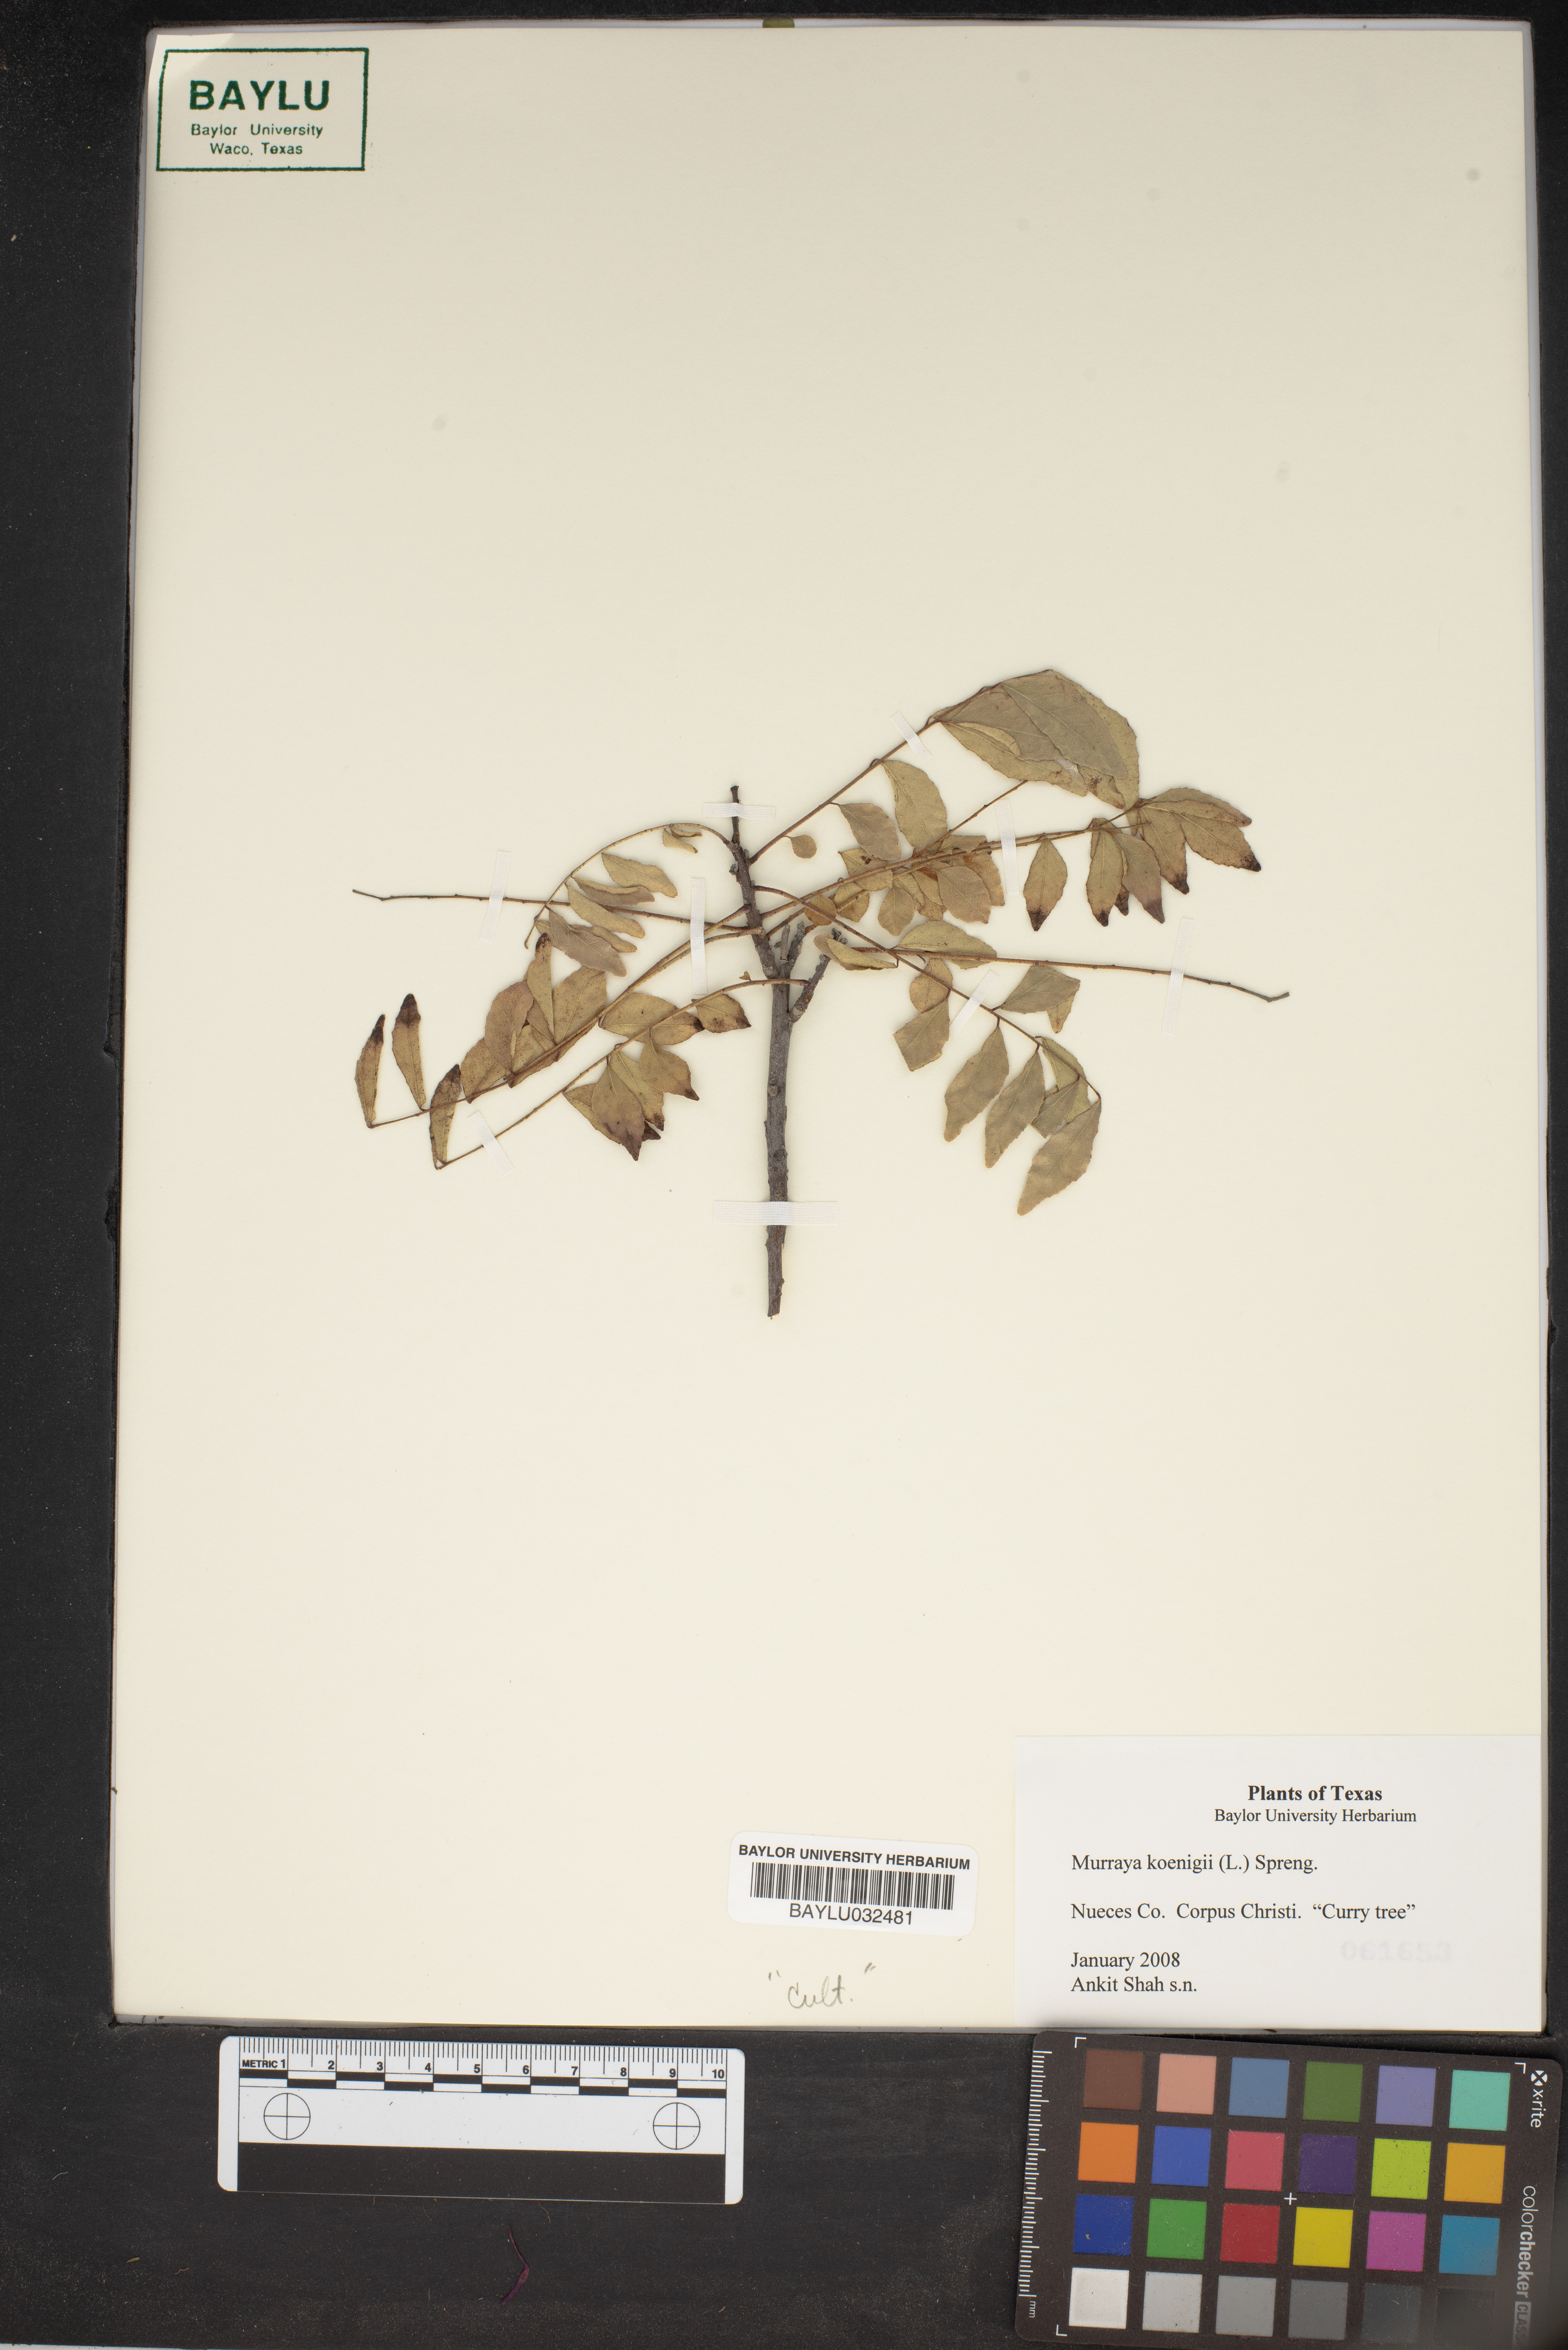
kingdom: Plantae
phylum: Tracheophyta
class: Magnoliopsida
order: Sapindales
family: Rutaceae
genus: Murraya
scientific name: Murraya koenigii
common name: Curry-plant
